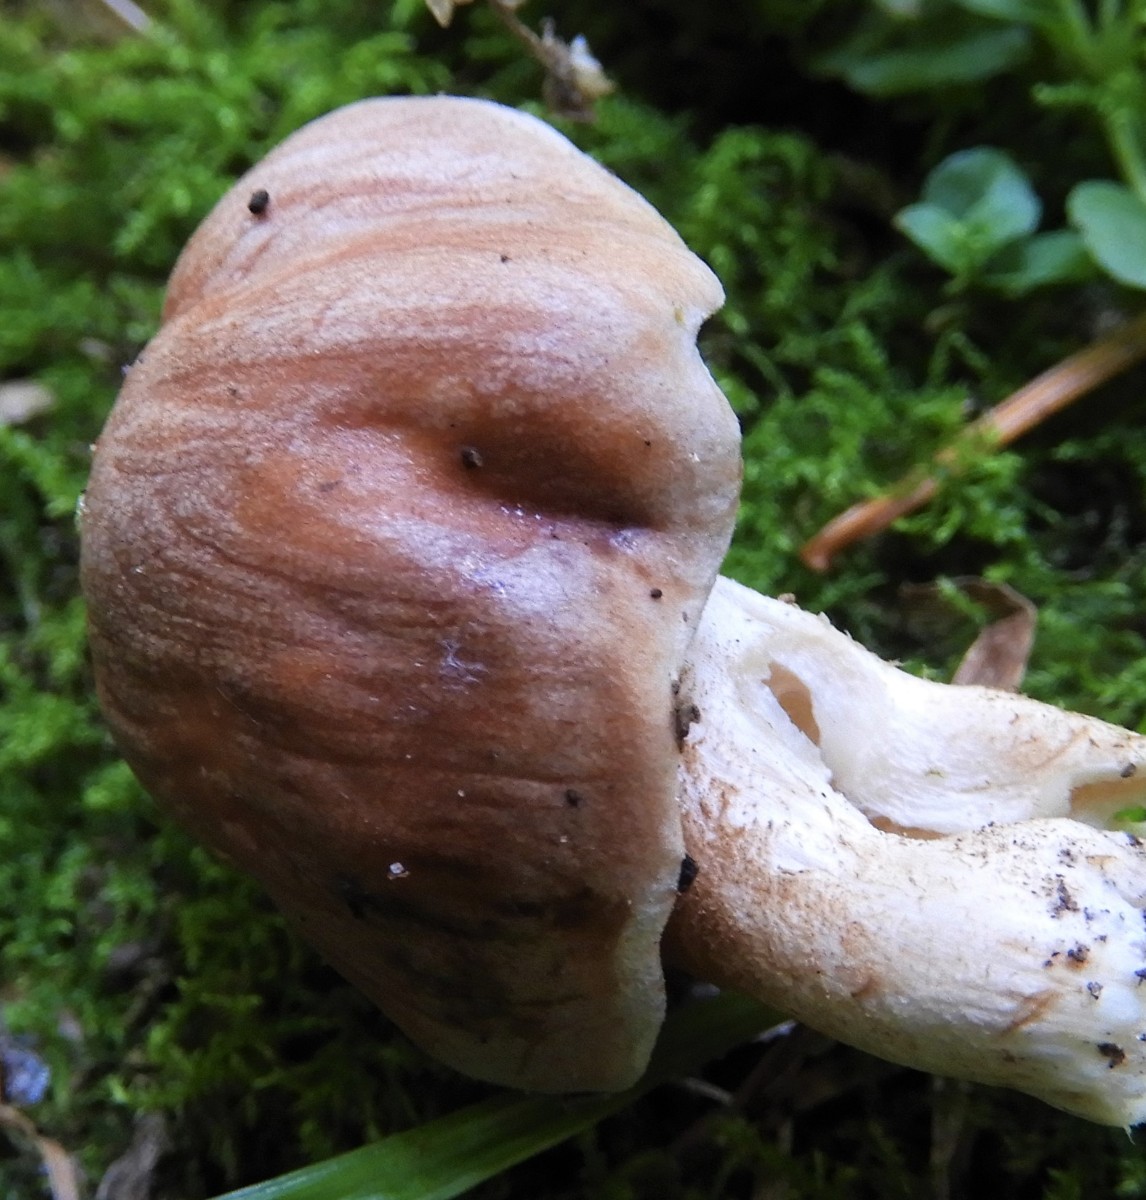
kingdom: Fungi
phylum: Basidiomycota
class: Agaricomycetes
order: Agaricales
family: Hymenogastraceae
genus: Hebeloma
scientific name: Hebeloma theobrominum
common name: rødbrun tåreblad
